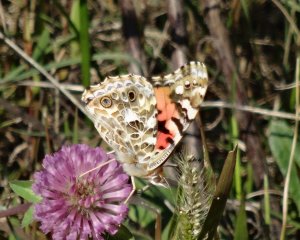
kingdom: Animalia
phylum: Arthropoda
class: Insecta
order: Lepidoptera
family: Nymphalidae
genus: Vanessa
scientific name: Vanessa cardui
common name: Painted Lady
